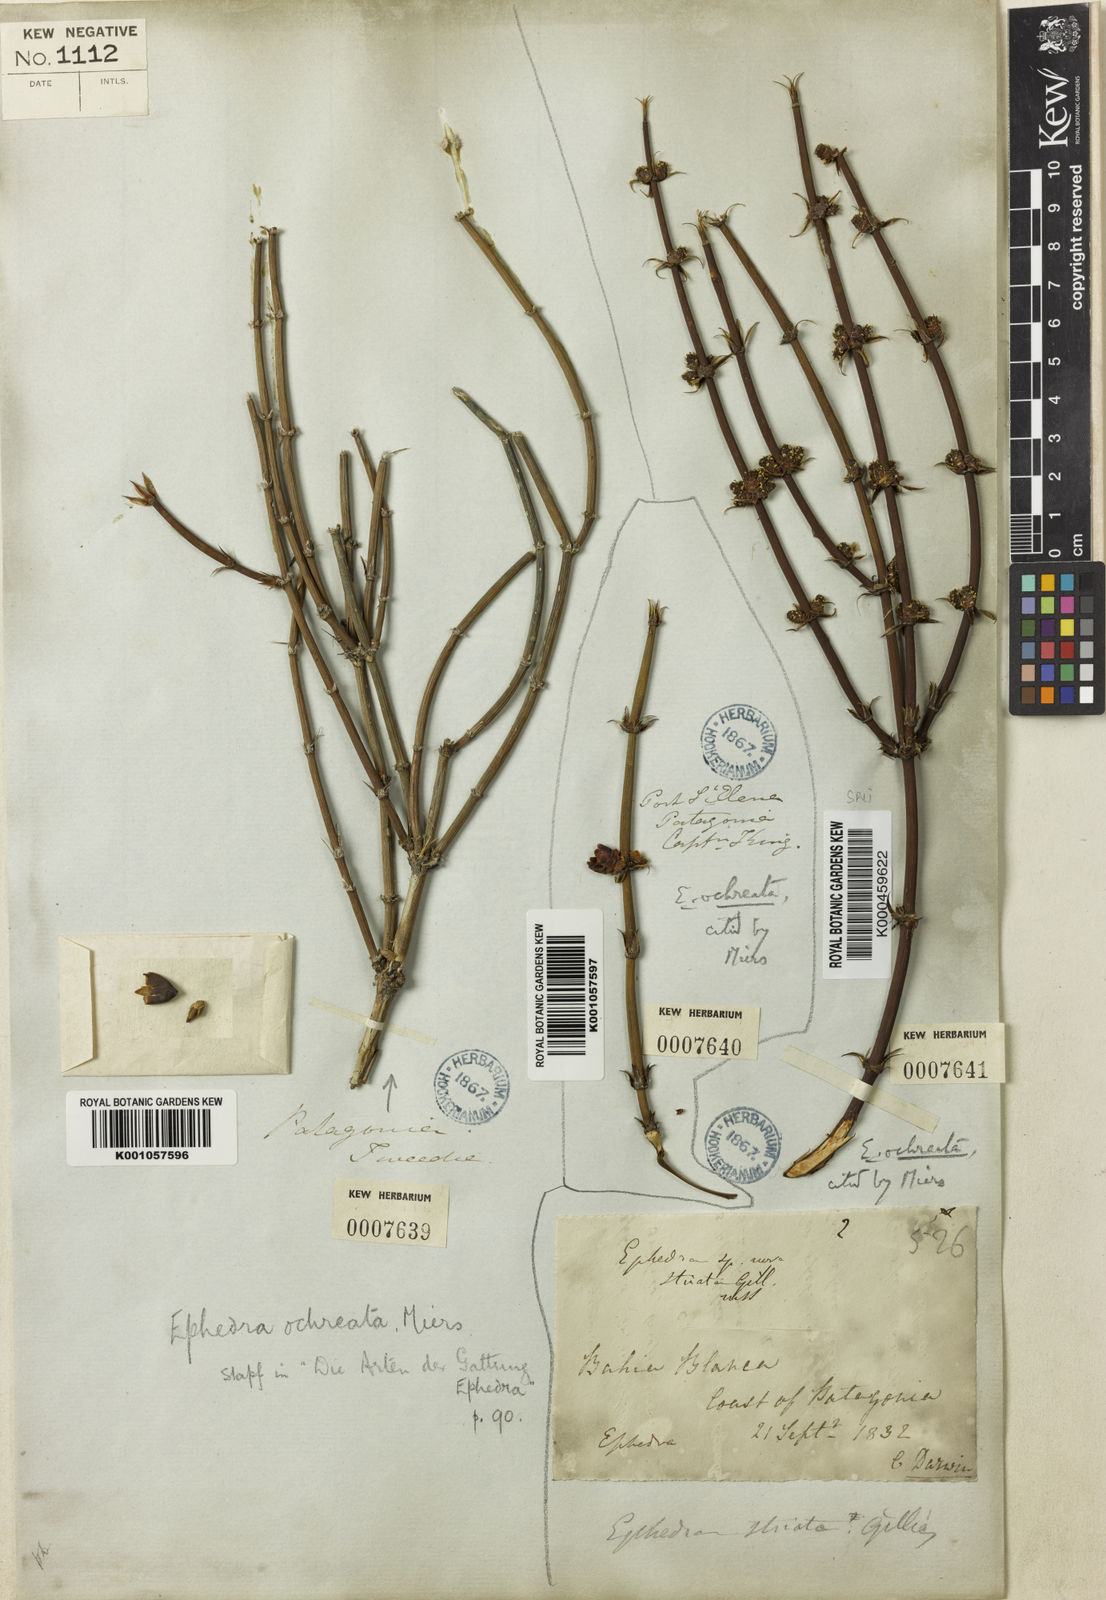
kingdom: Plantae
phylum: Tracheophyta
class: Gnetopsida
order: Ephedrales
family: Ephedraceae
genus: Ephedra
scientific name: Ephedra ochreata
